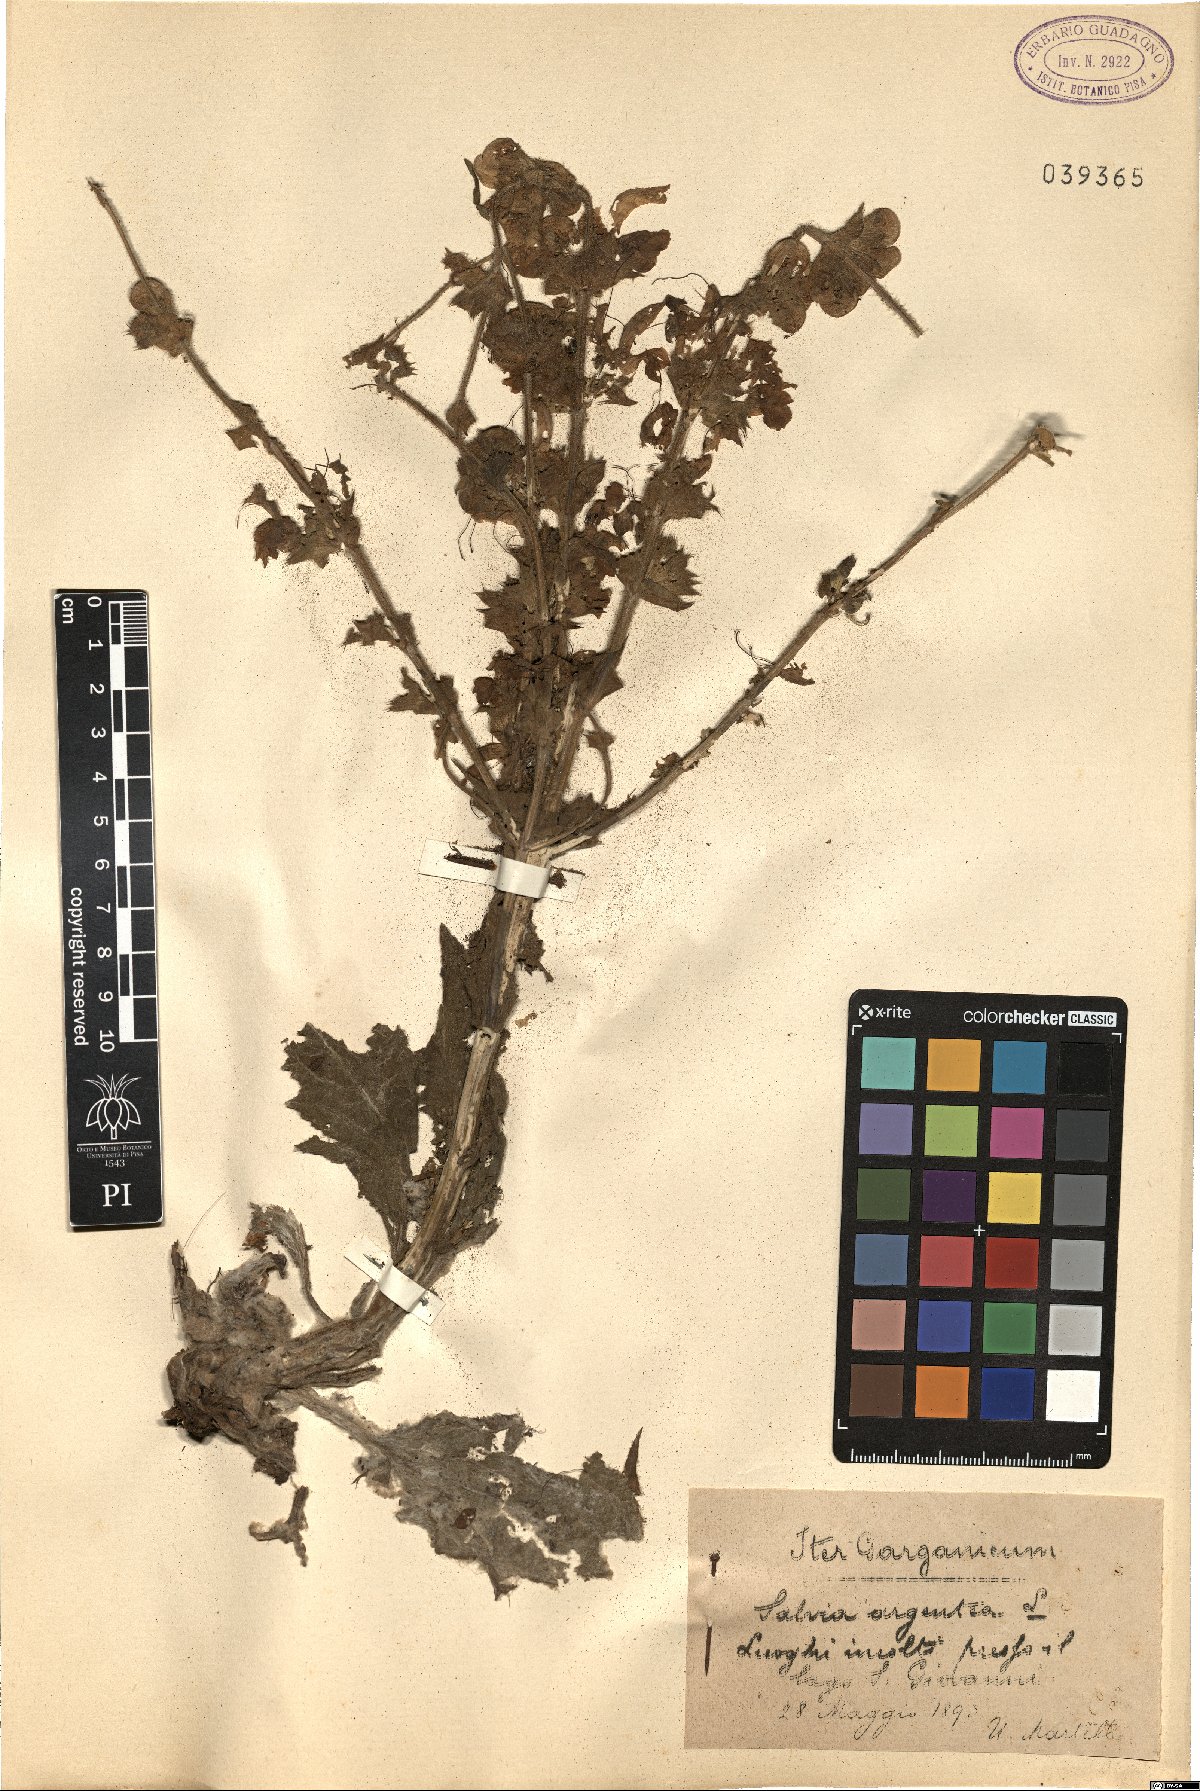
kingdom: Plantae
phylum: Tracheophyta
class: Magnoliopsida
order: Lamiales
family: Lamiaceae
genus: Salvia
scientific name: Salvia argentea
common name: Silver sage
